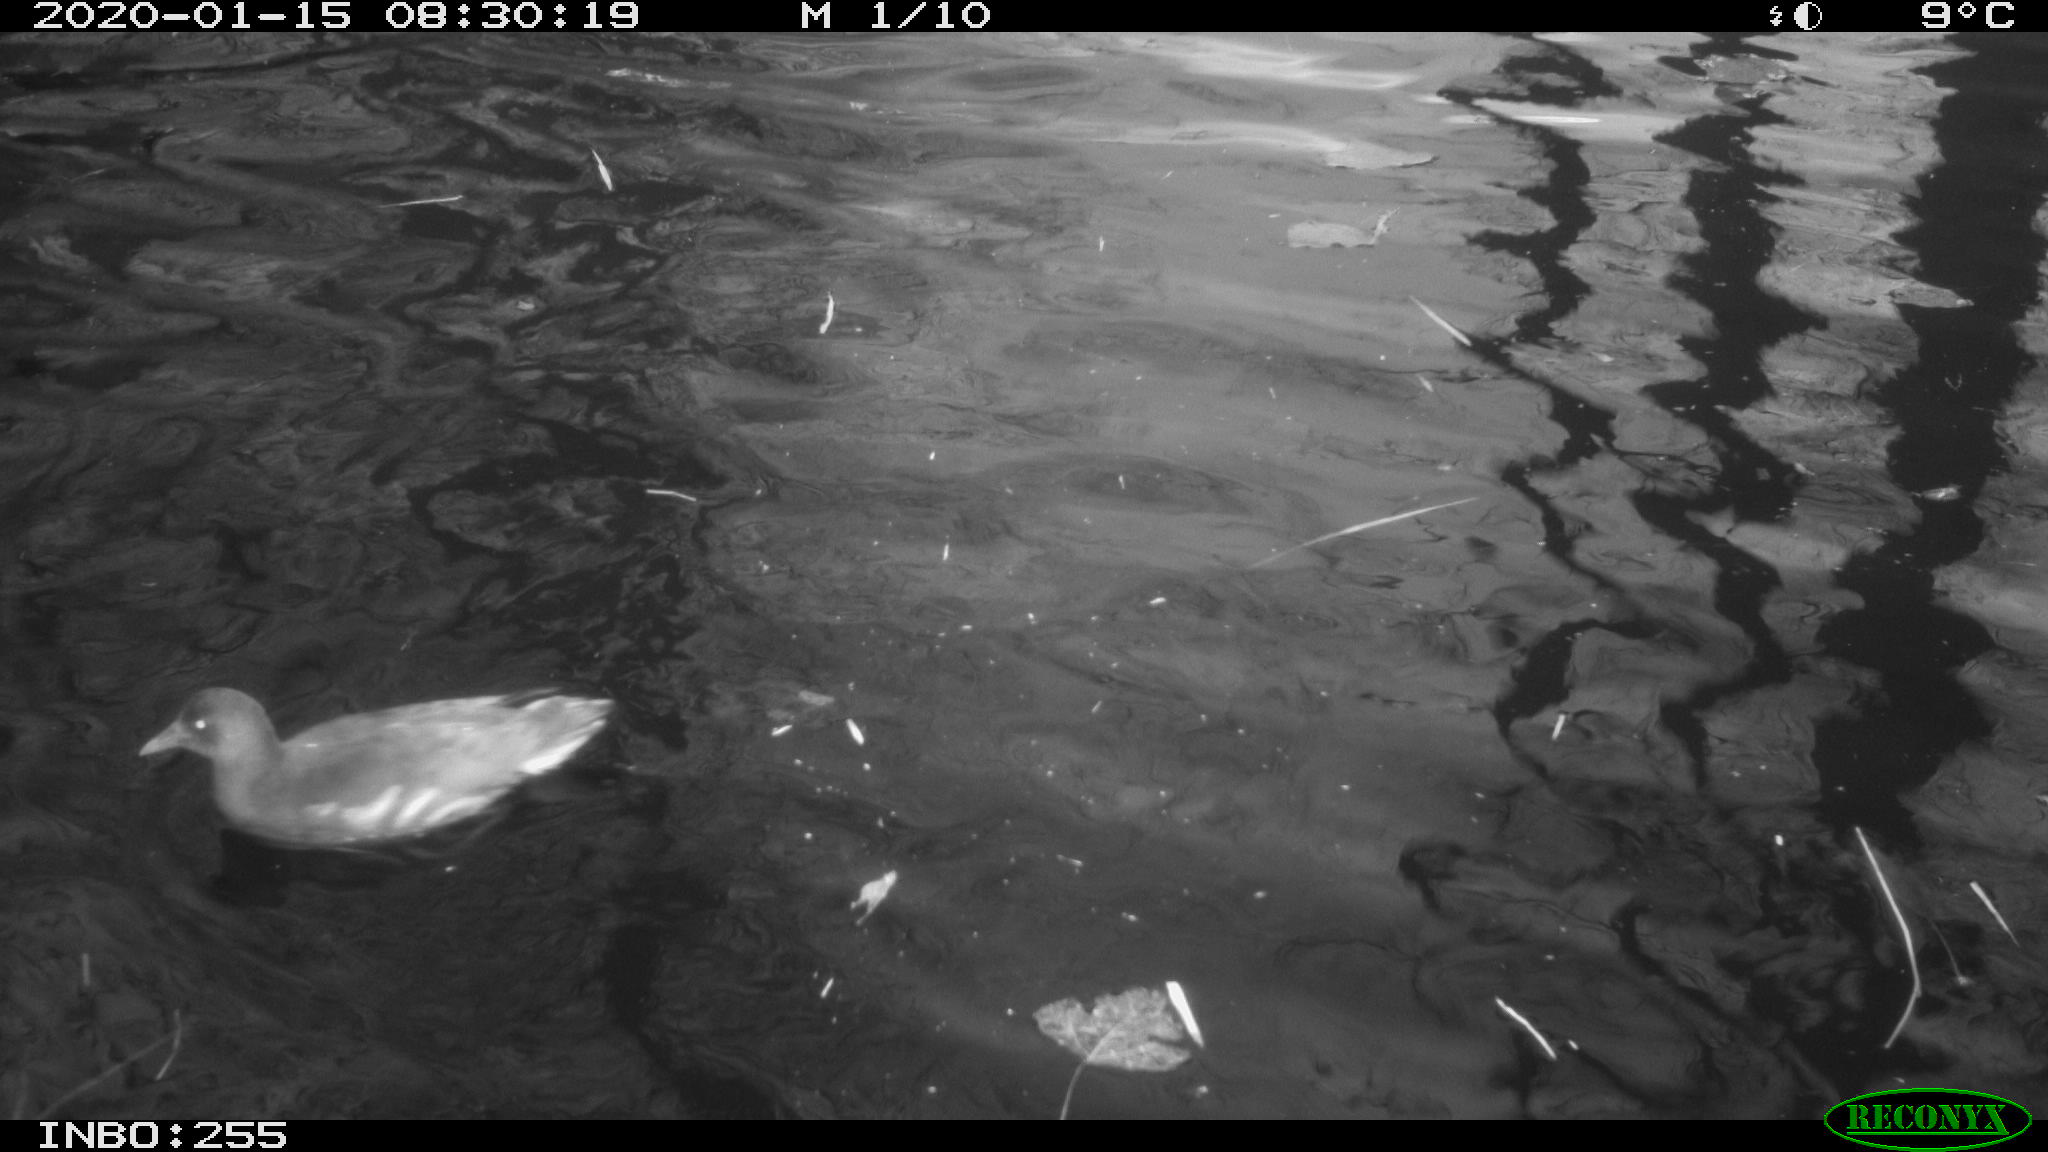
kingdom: Animalia
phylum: Chordata
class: Aves
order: Gruiformes
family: Rallidae
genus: Gallinula
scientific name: Gallinula chloropus
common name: Common moorhen
